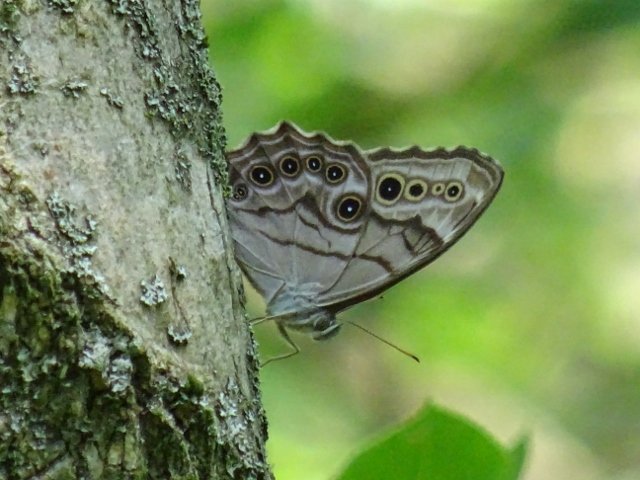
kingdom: Animalia
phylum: Arthropoda
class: Insecta
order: Lepidoptera
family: Nymphalidae
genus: Lethe
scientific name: Lethe anthedon
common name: Northern Pearly-Eye
